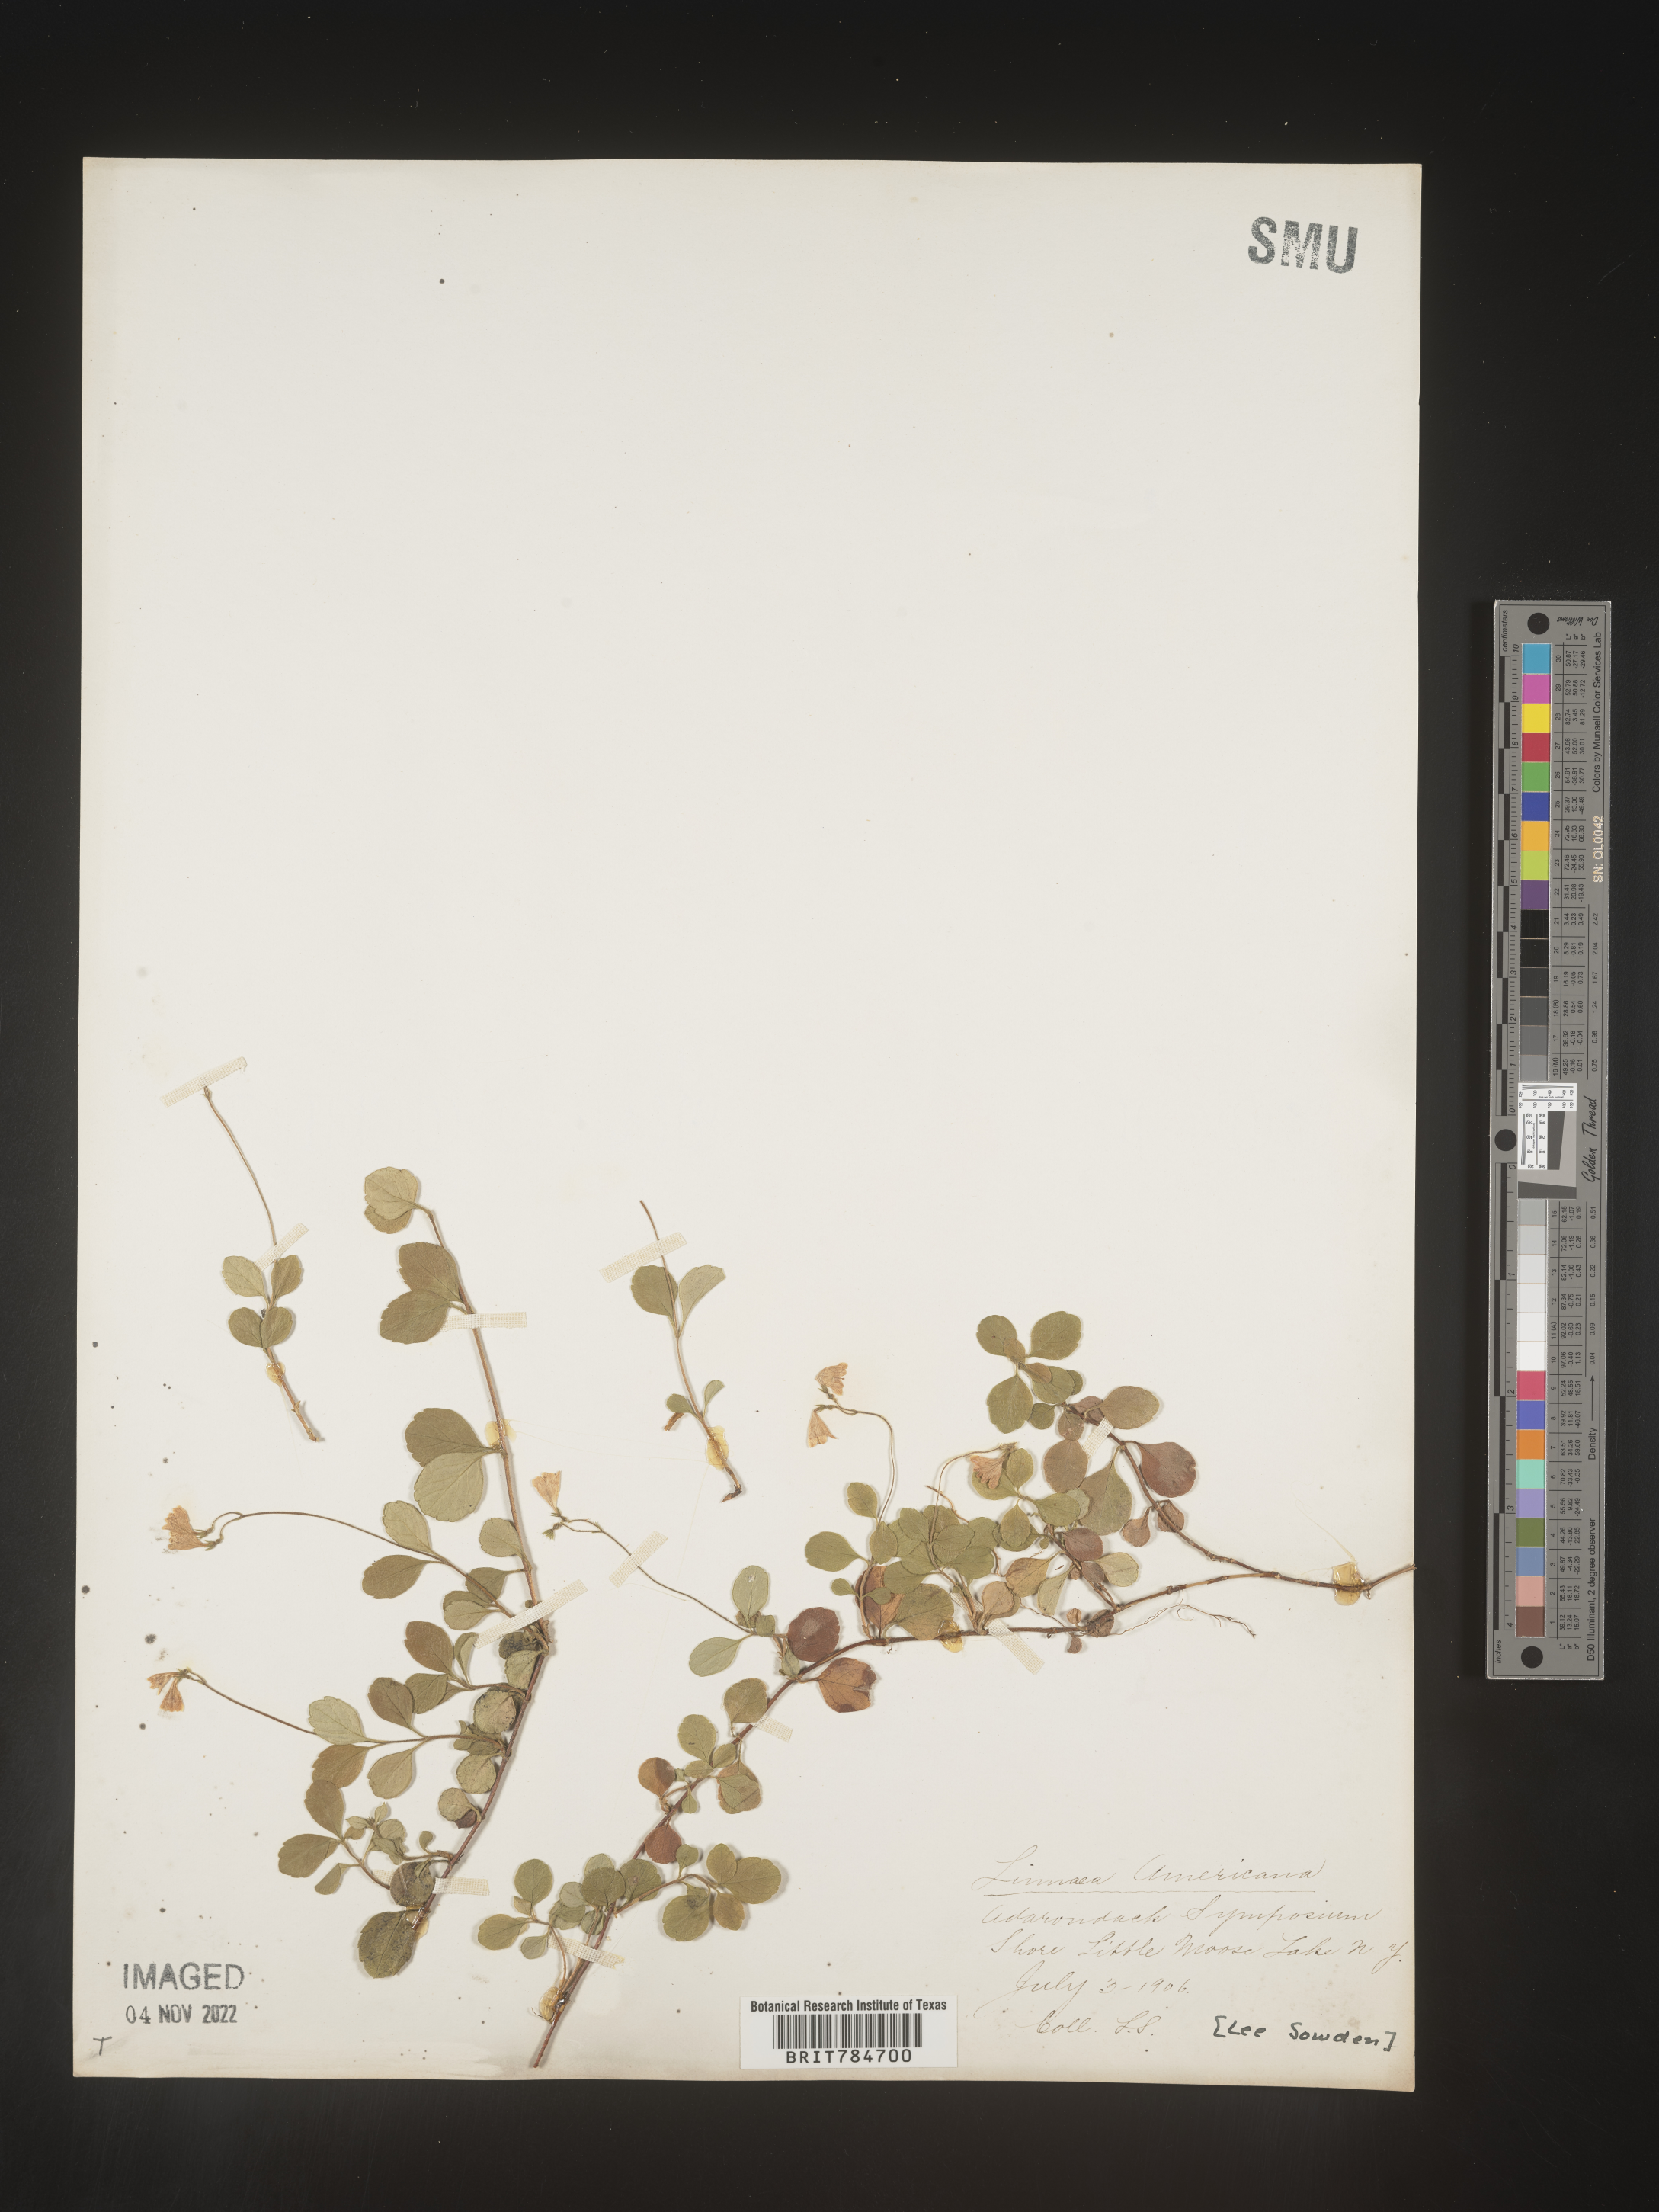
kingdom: Plantae
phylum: Tracheophyta
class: Magnoliopsida
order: Dipsacales
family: Caprifoliaceae
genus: Linnaea
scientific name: Linnaea borealis
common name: Twinflower
